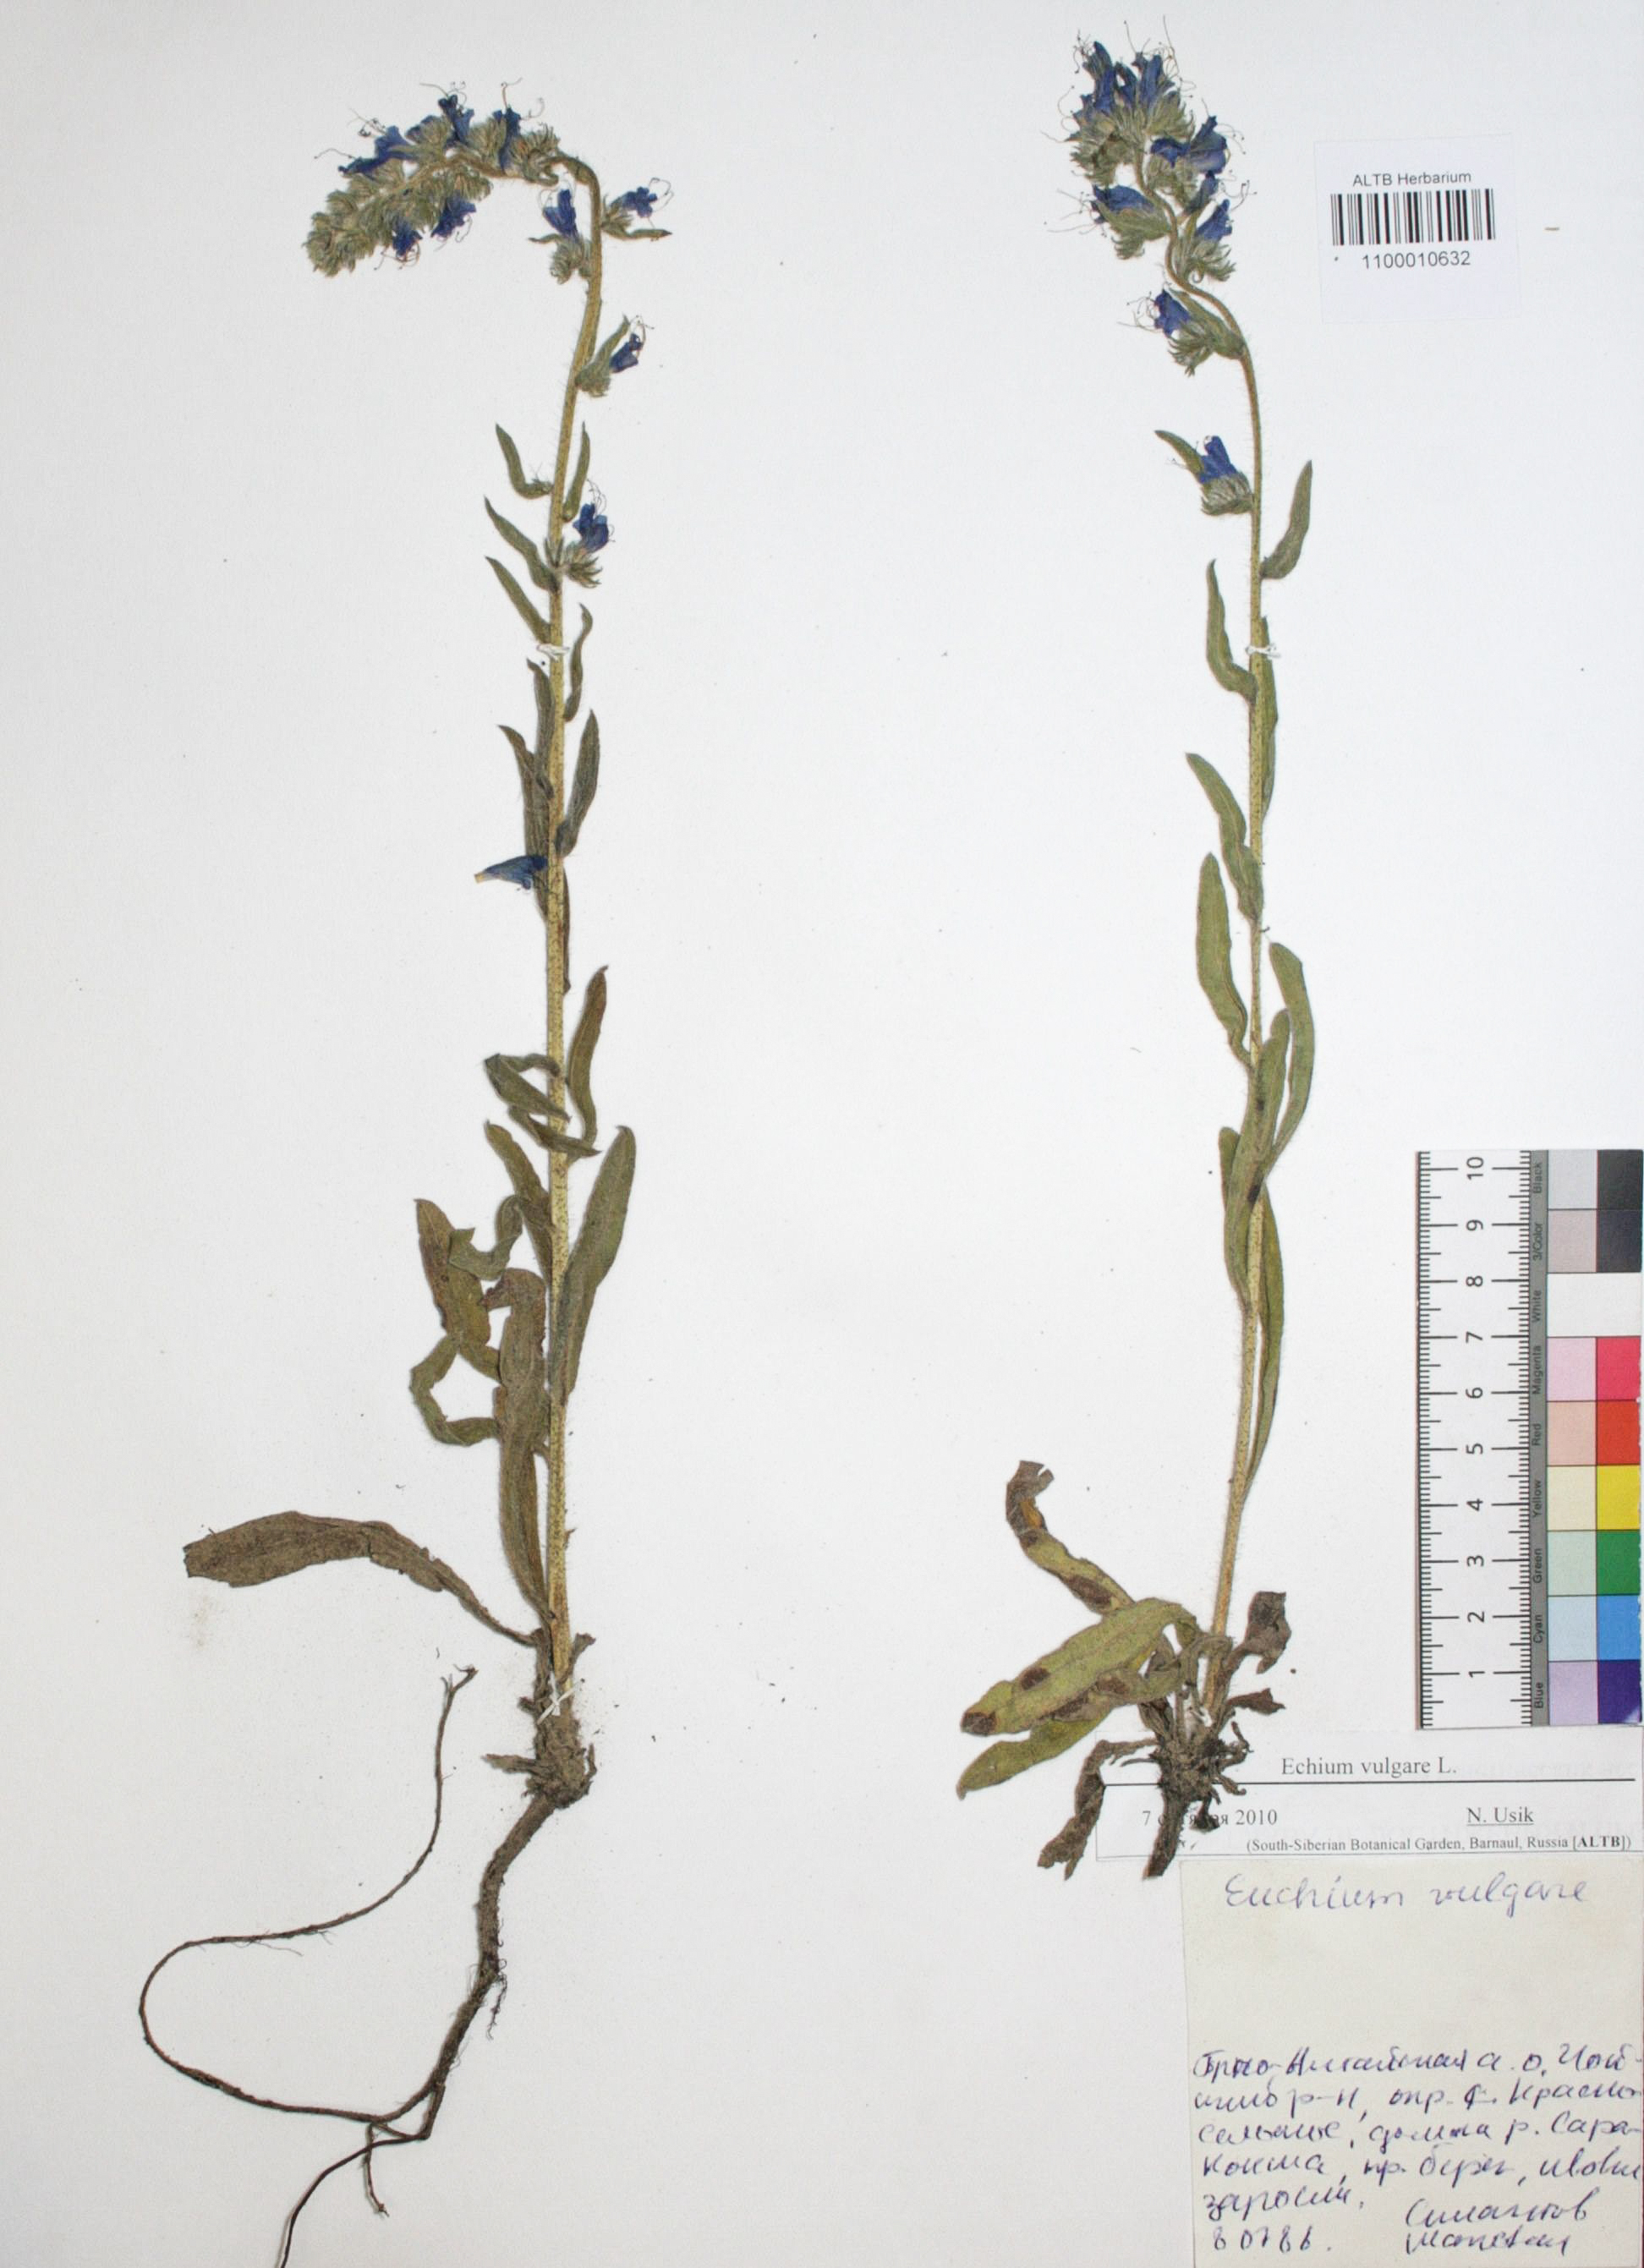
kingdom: Plantae
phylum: Tracheophyta
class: Magnoliopsida
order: Boraginales
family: Boraginaceae
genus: Echium
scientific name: Echium vulgare
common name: Common viper's bugloss
